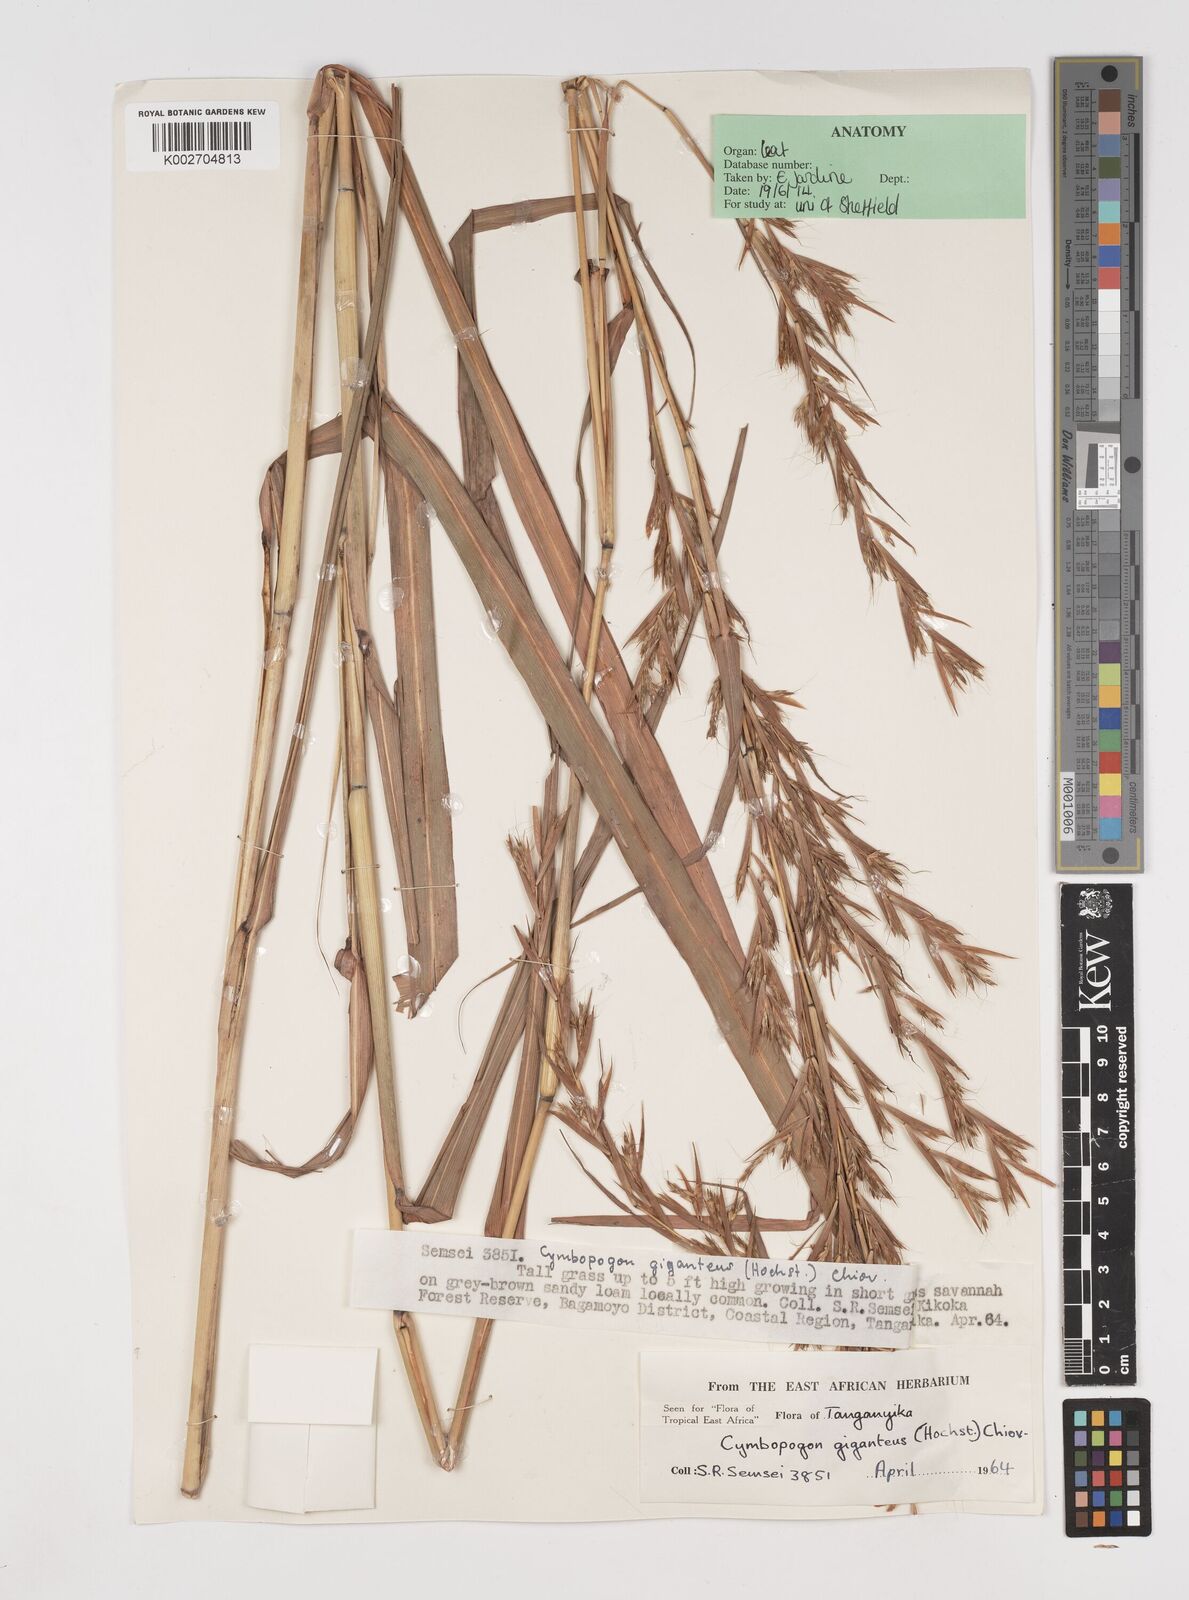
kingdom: Plantae
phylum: Tracheophyta
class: Liliopsida
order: Poales
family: Poaceae
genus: Cymbopogon
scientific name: Cymbopogon giganteus
